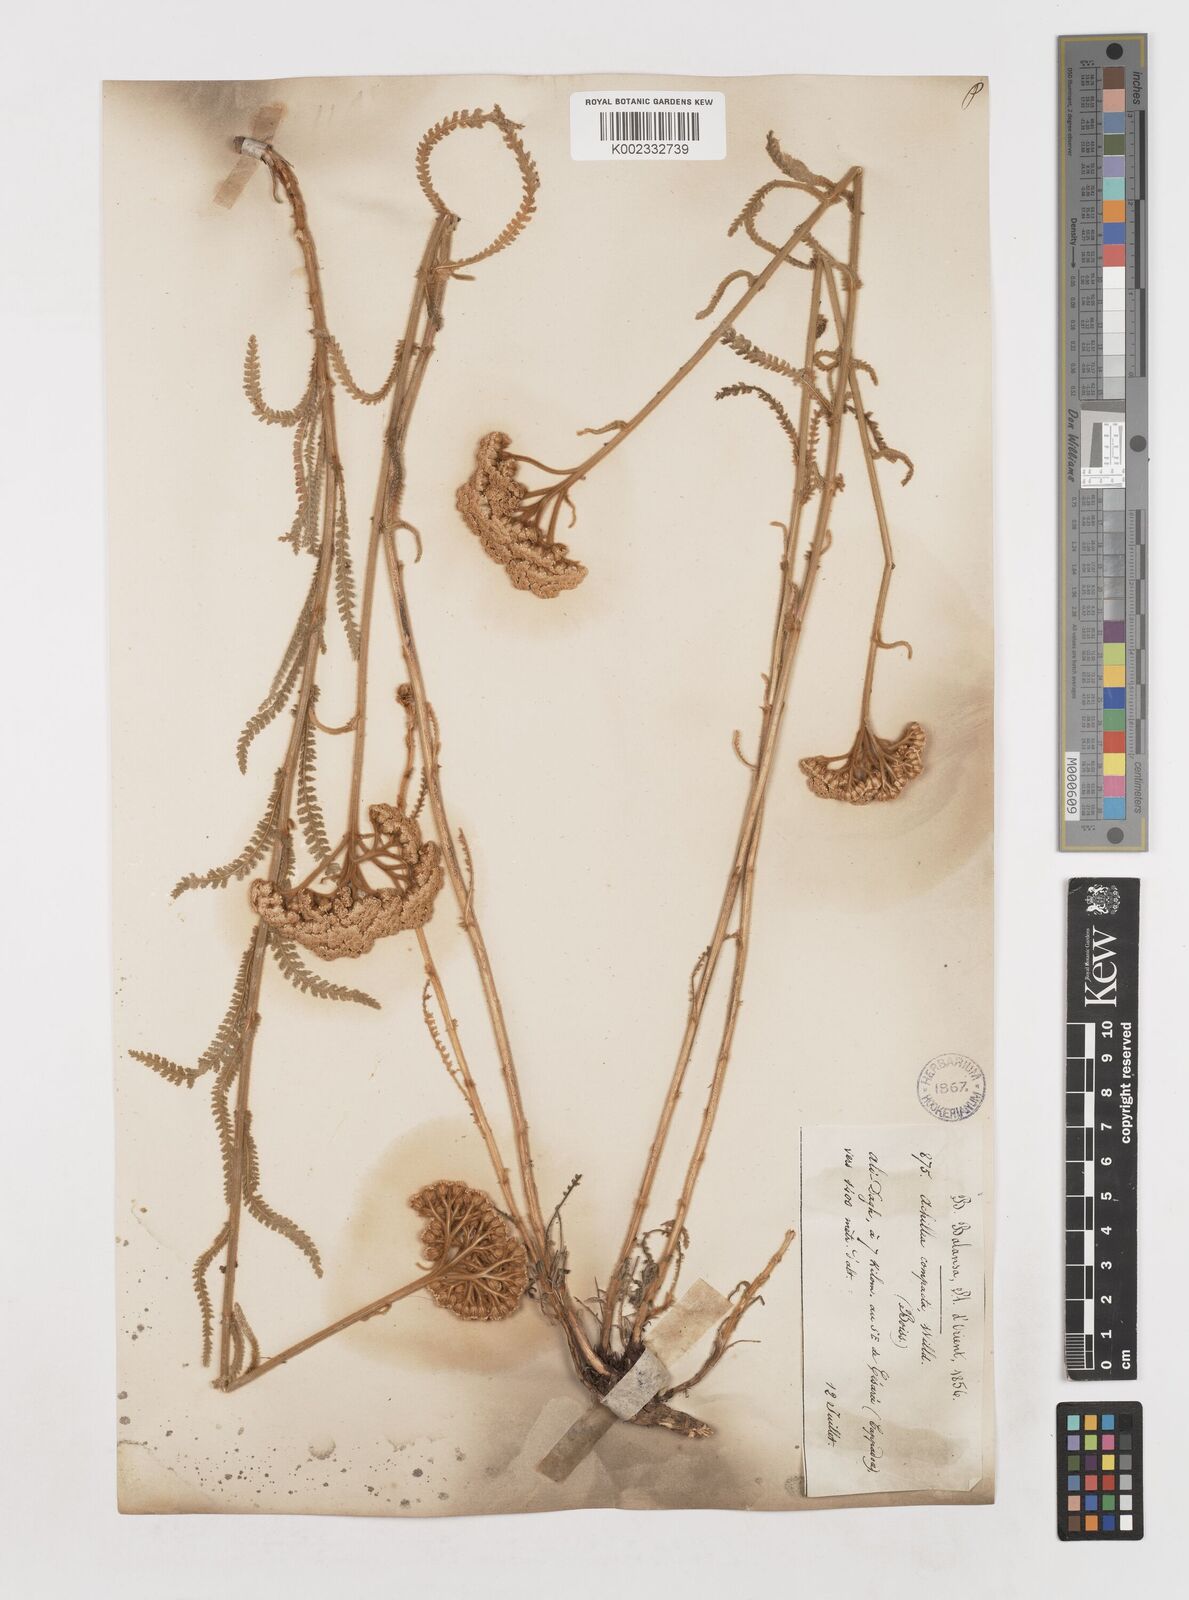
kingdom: Plantae
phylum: Tracheophyta
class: Magnoliopsida
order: Asterales
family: Asteraceae
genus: Achillea
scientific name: Achillea coarctata
